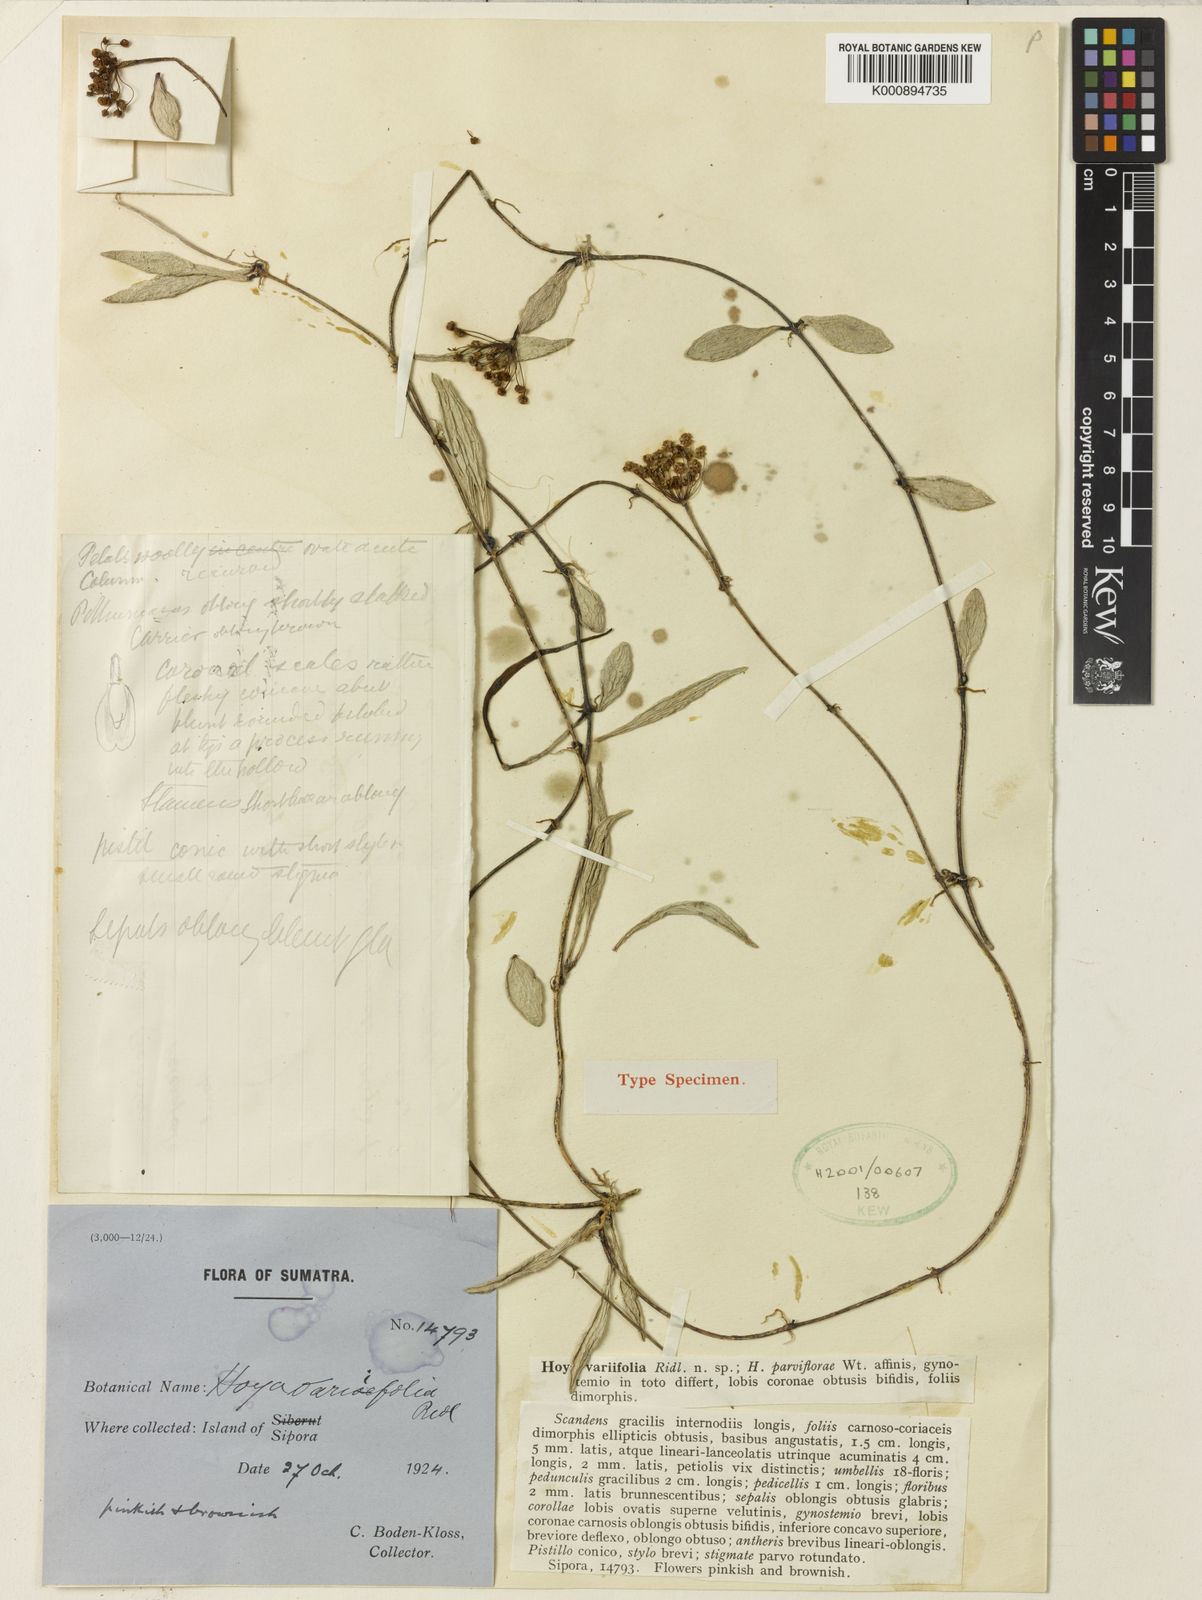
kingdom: Plantae
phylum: Tracheophyta
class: Magnoliopsida
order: Gentianales
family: Apocynaceae
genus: Hoya
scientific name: Hoya parviflora
